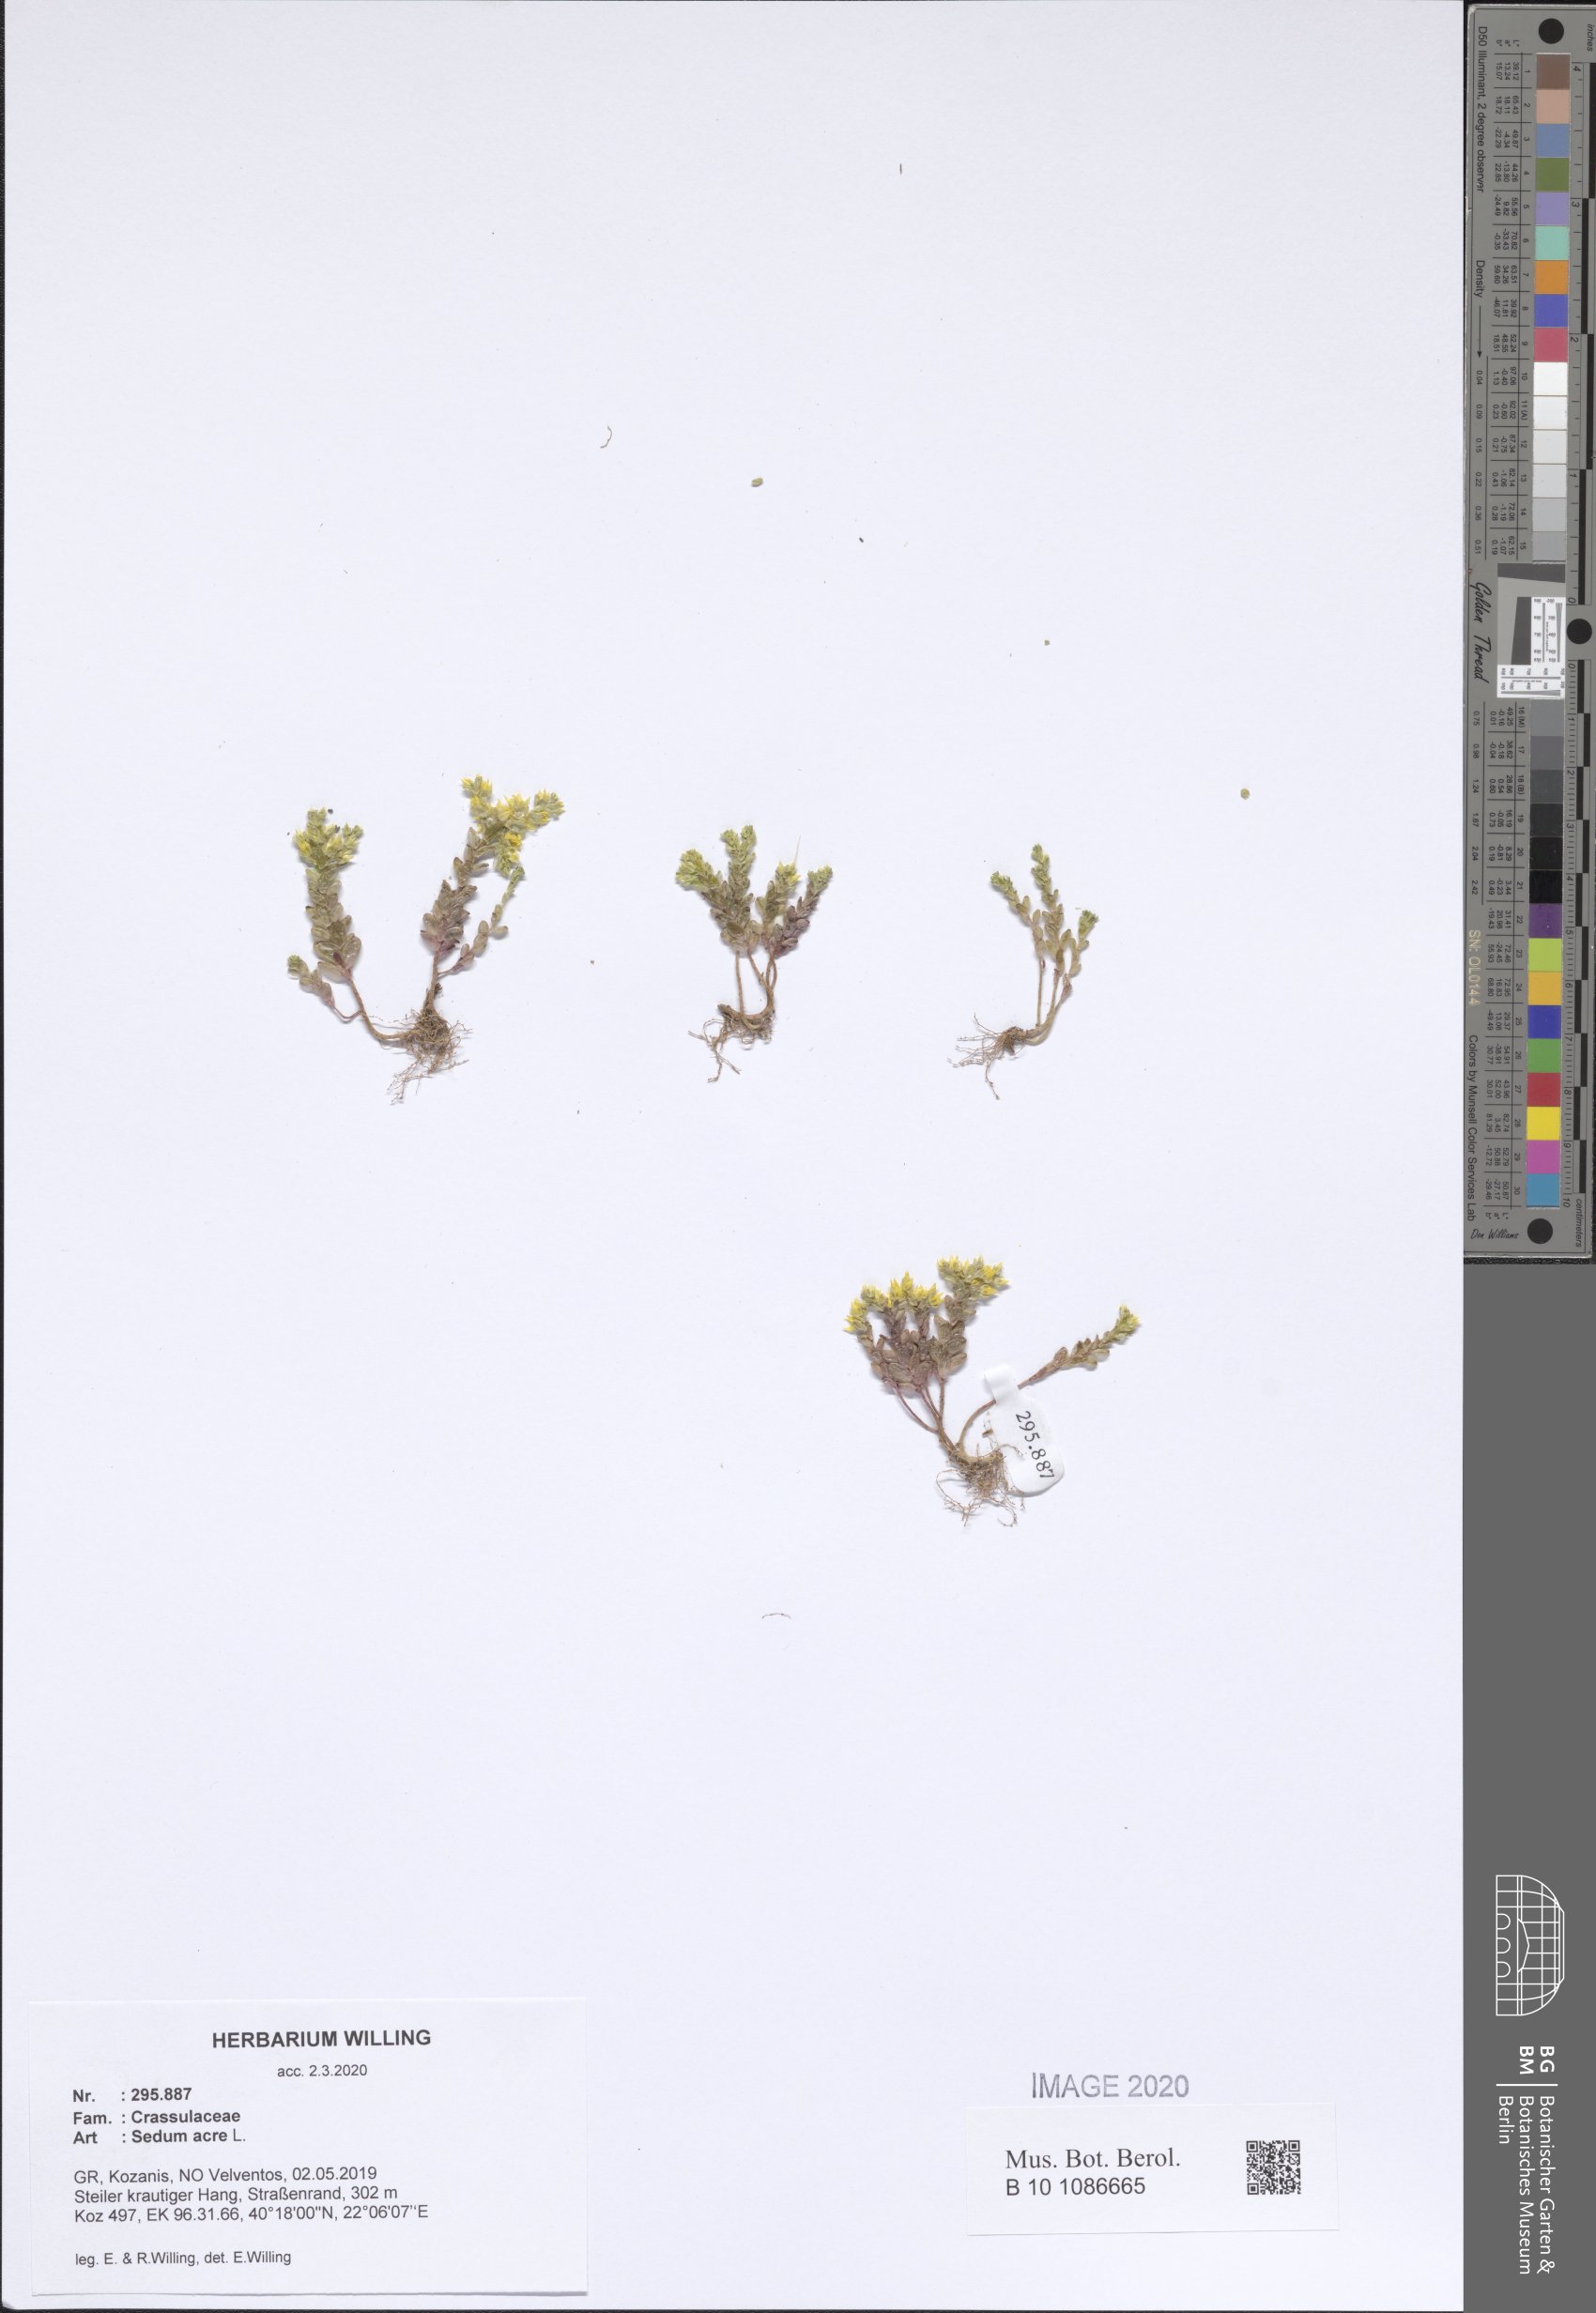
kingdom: Plantae
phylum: Tracheophyta
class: Magnoliopsida
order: Saxifragales
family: Crassulaceae
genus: Sedum
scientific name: Sedum acre
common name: Biting stonecrop
